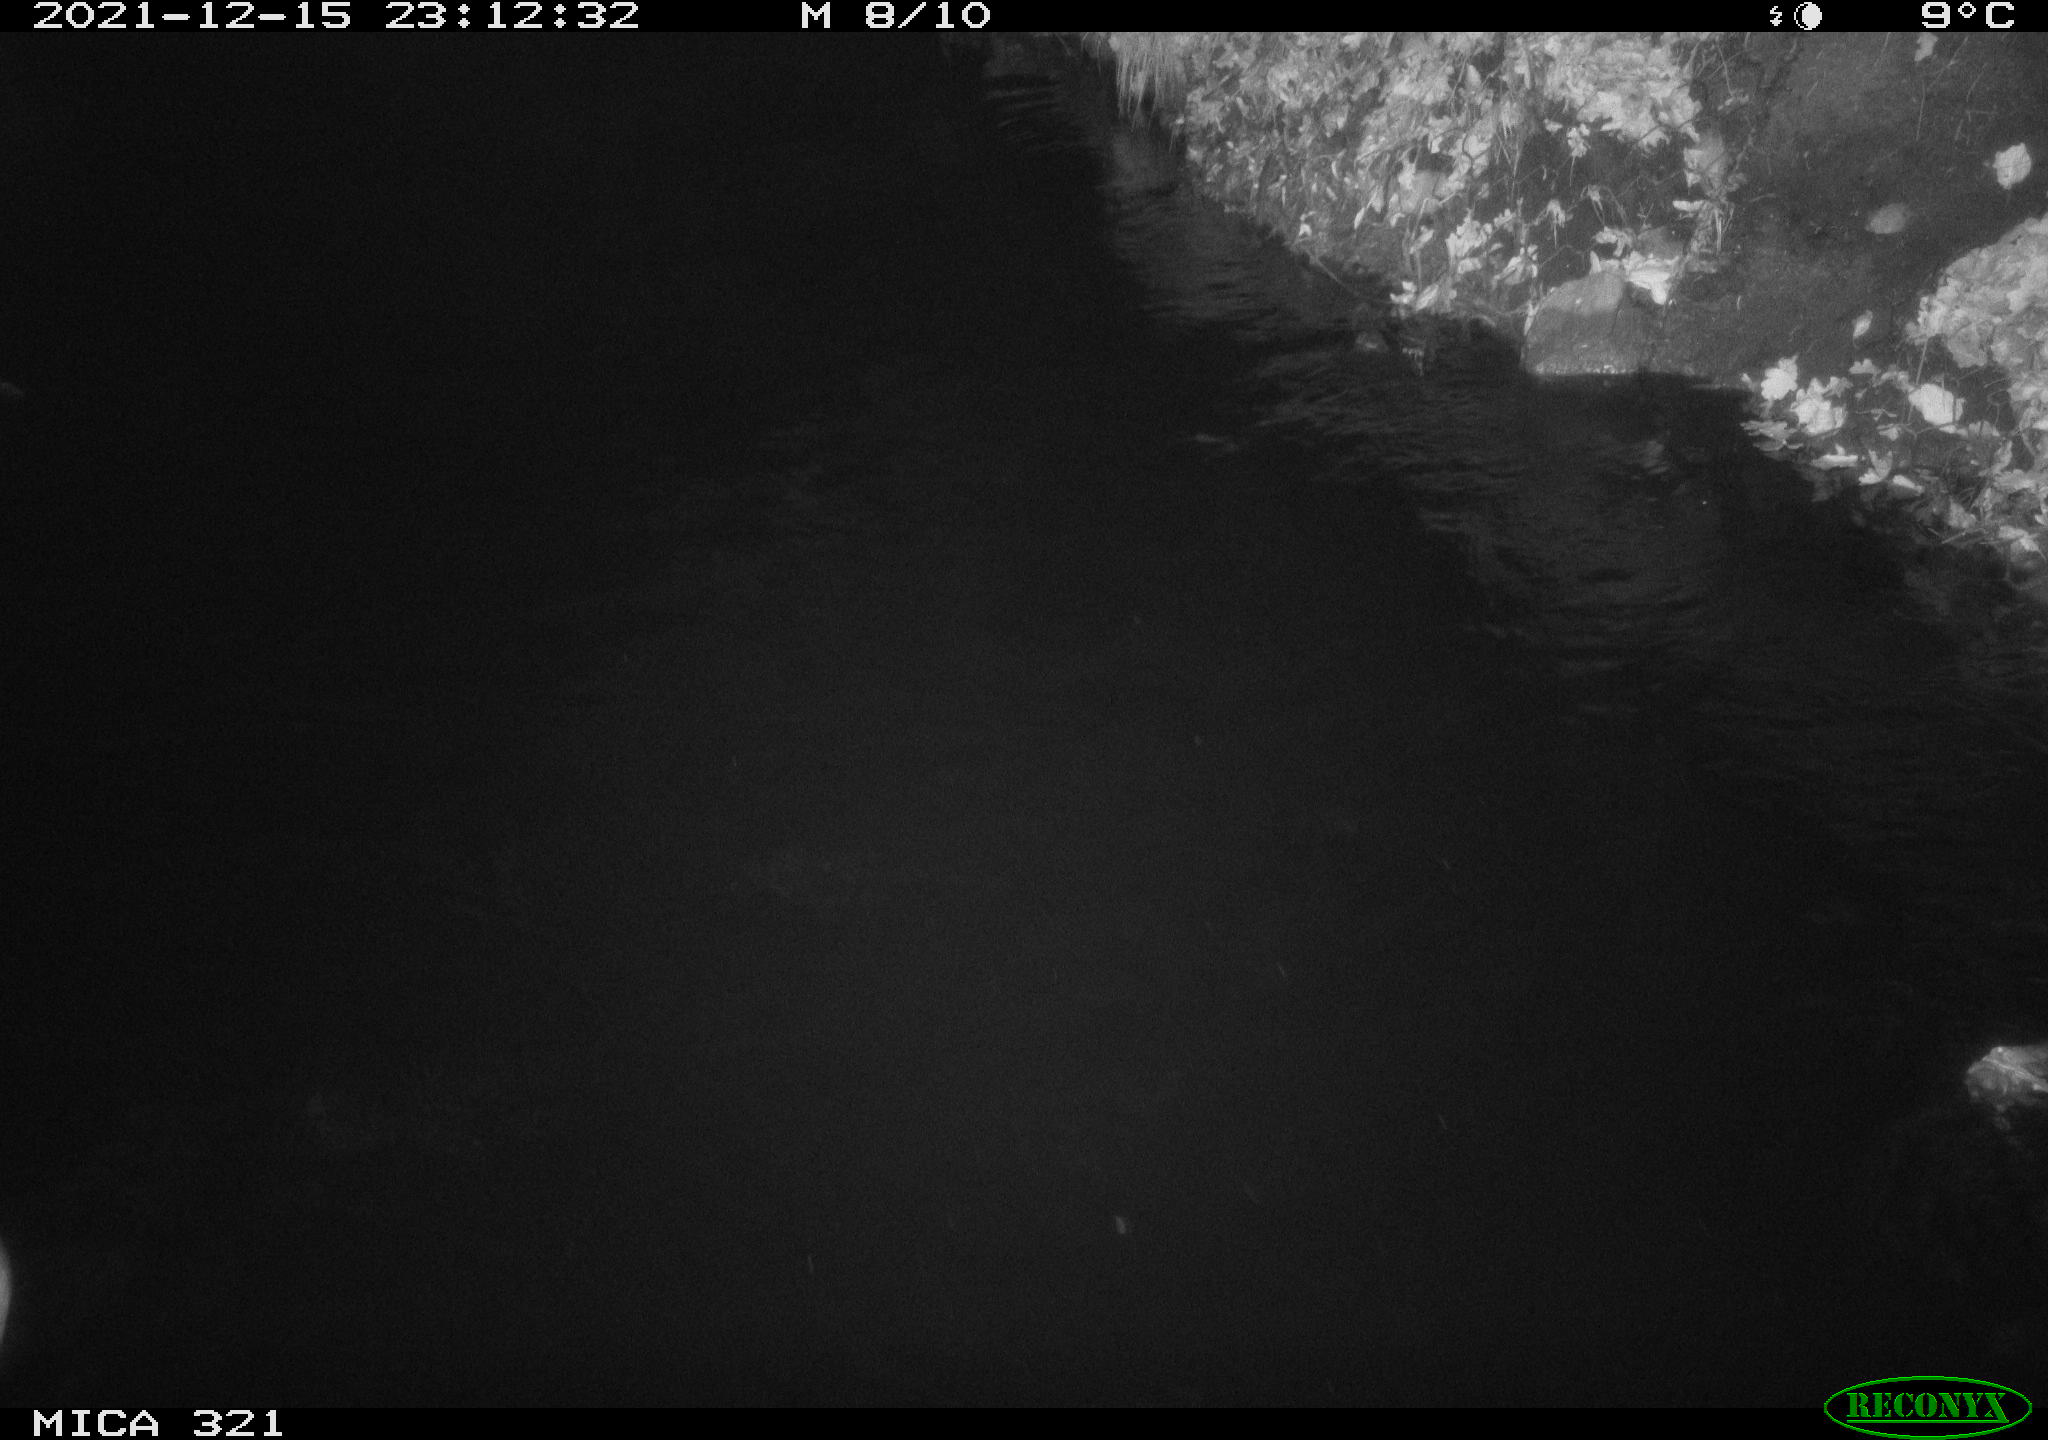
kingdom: Animalia
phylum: Chordata
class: Aves
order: Anseriformes
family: Anatidae
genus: Anas
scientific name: Anas
